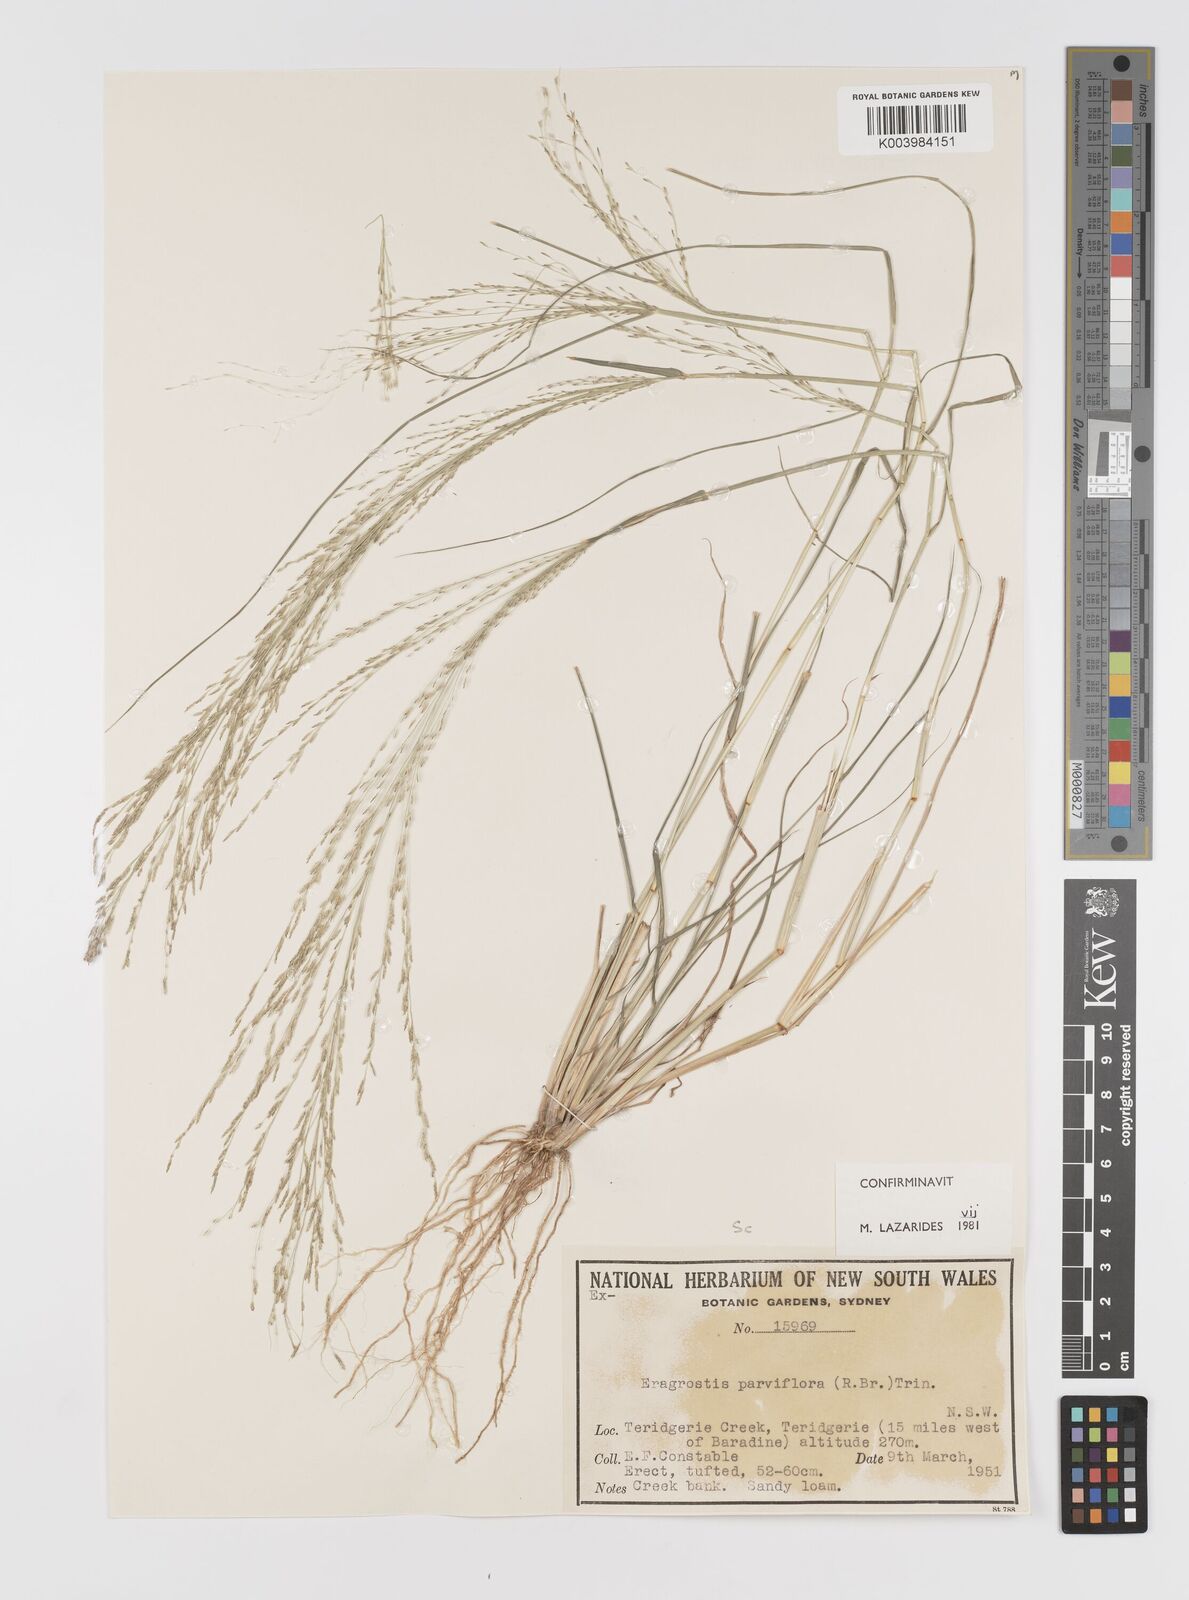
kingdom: Plantae
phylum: Tracheophyta
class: Liliopsida
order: Poales
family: Poaceae
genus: Eragrostis
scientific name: Eragrostis parviflora
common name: Weeping love-grass
